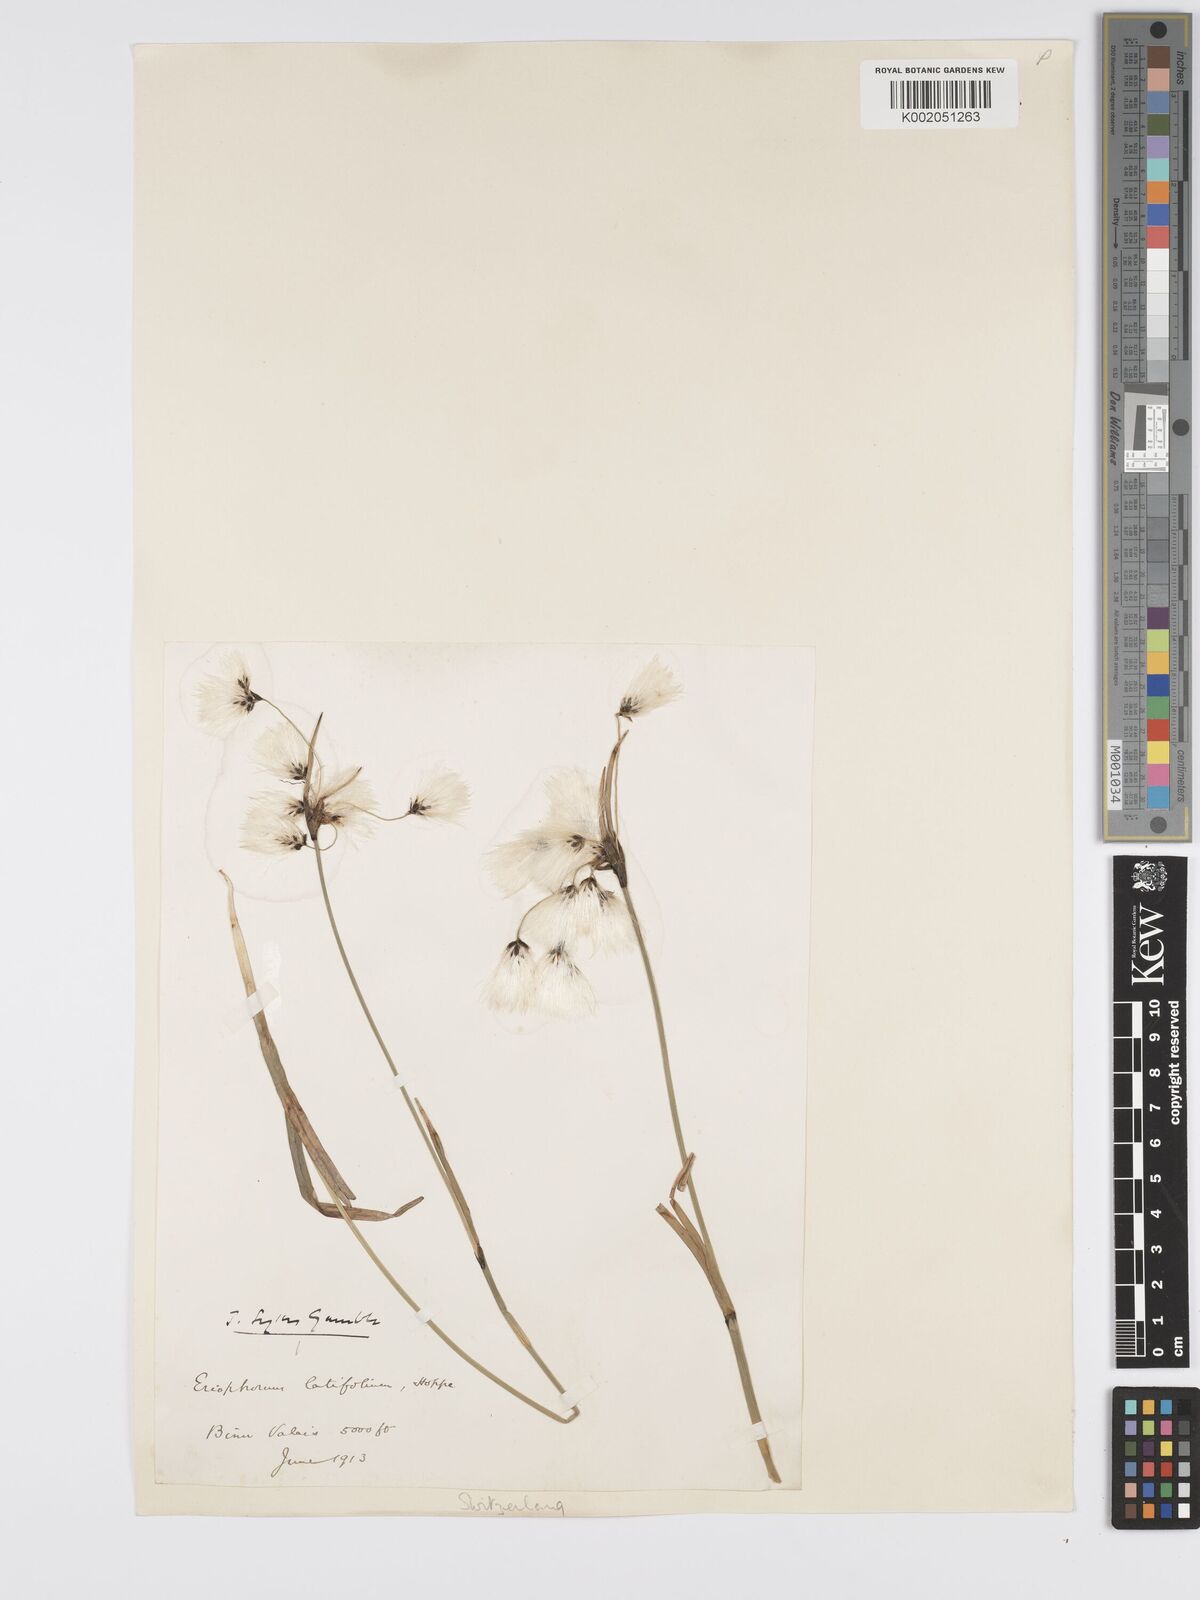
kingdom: Plantae
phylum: Tracheophyta
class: Liliopsida
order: Poales
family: Cyperaceae
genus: Eriophorum
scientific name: Eriophorum latifolium
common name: Broad-leaved cottongrass
